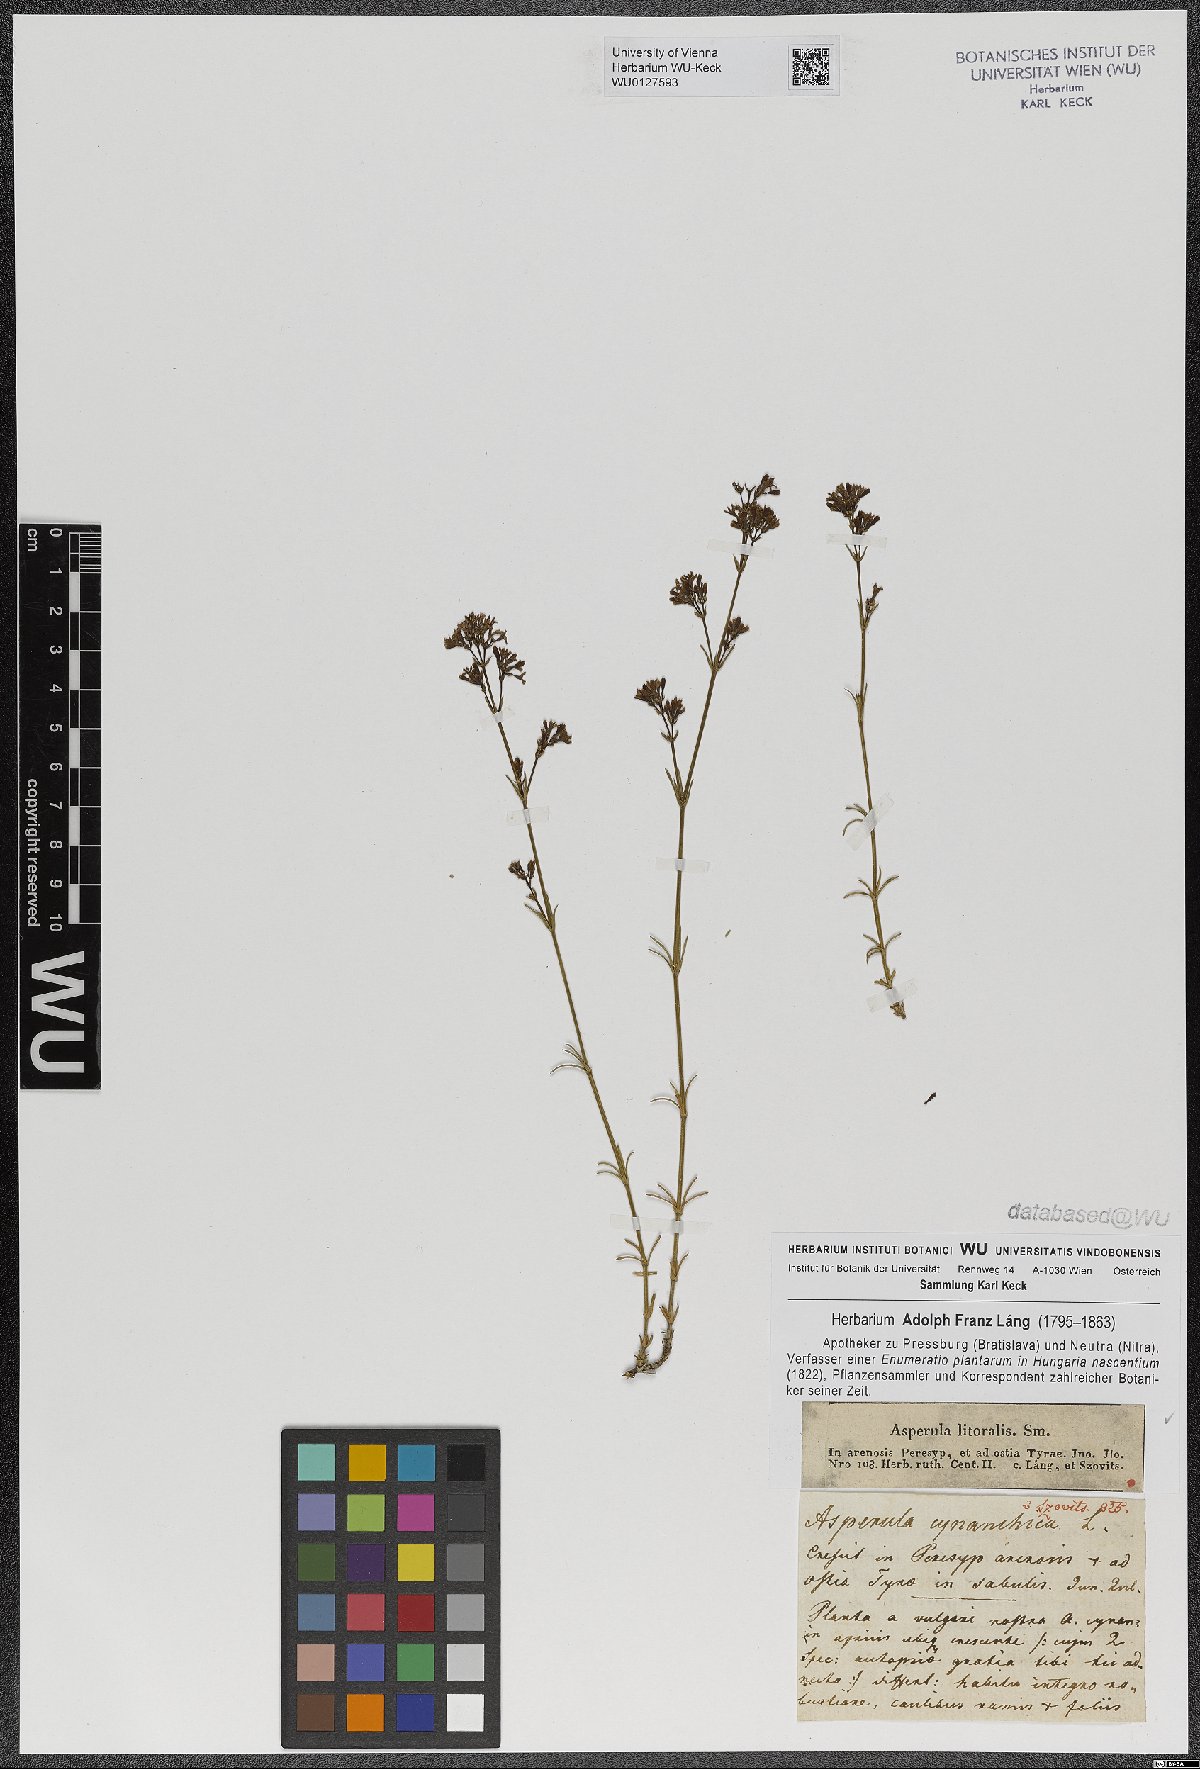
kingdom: Plantae
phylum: Tracheophyta
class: Magnoliopsida
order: Gentianales
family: Rubiaceae
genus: Cynanchica
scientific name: Cynanchica littoralis
